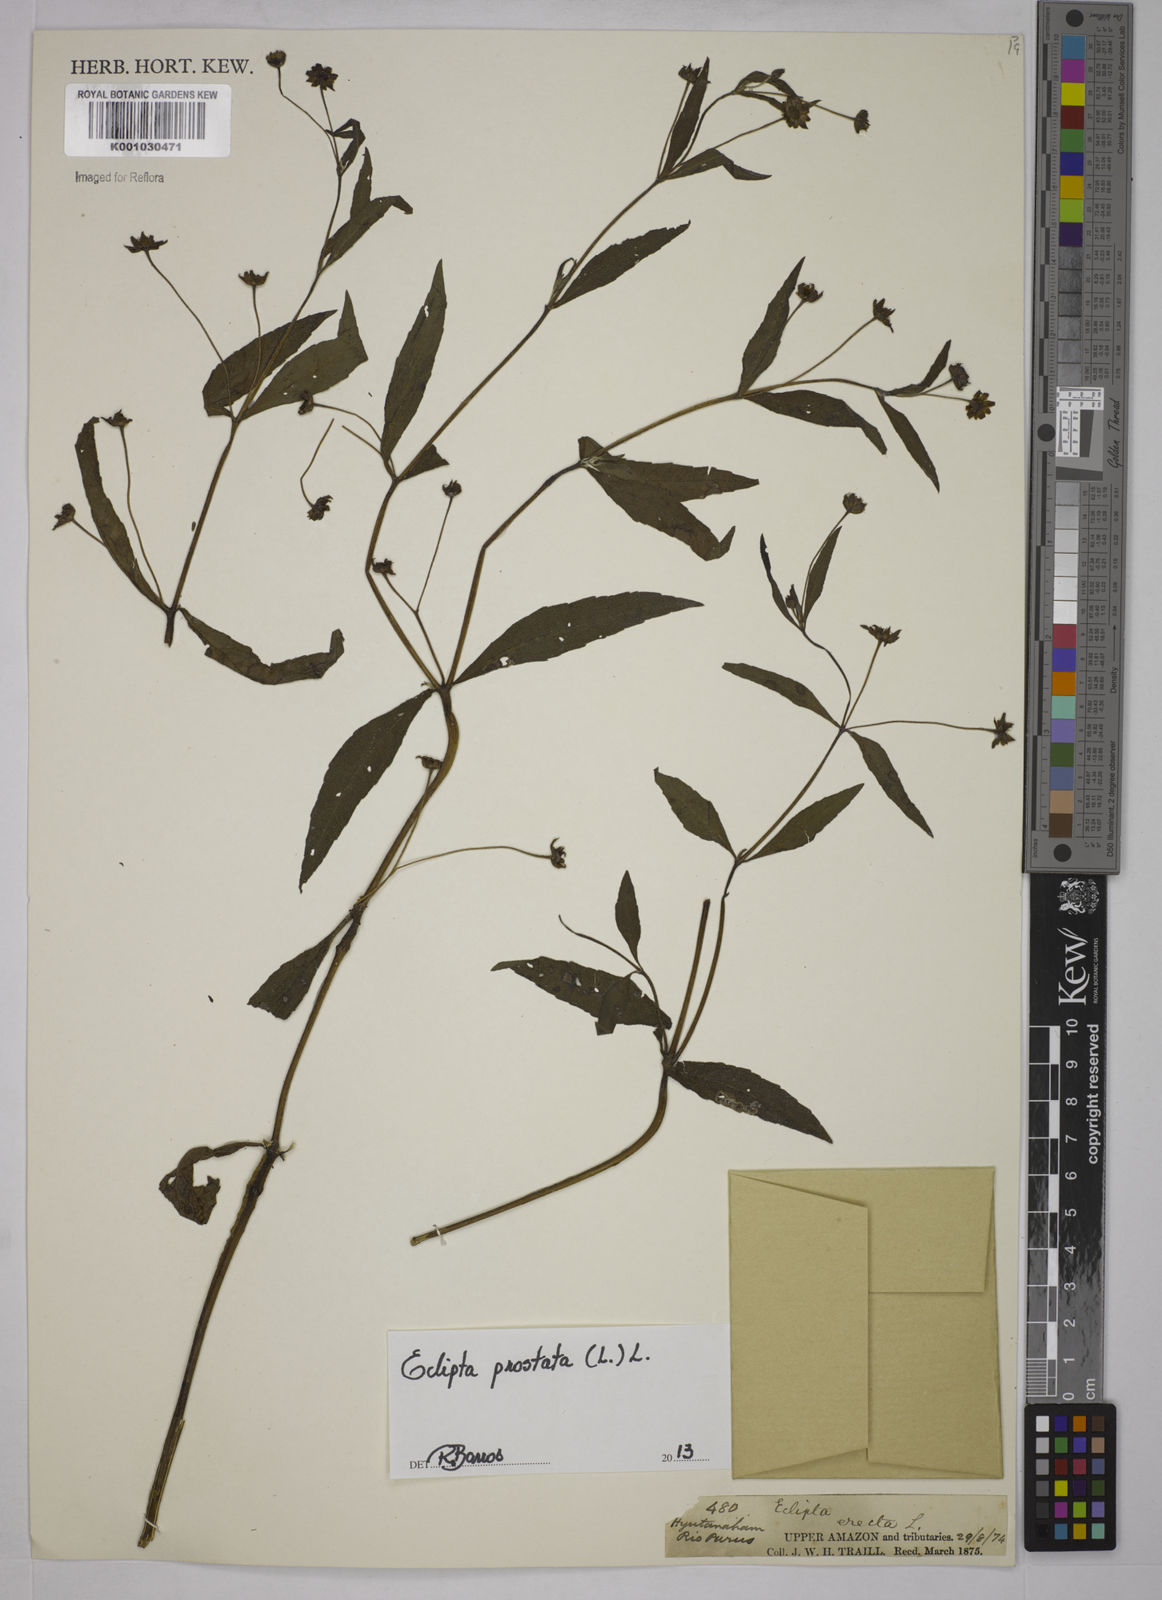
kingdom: Plantae
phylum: Tracheophyta
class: Magnoliopsida
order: Asterales
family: Asteraceae
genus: Eclipta
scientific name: Eclipta prostrata
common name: False daisy
